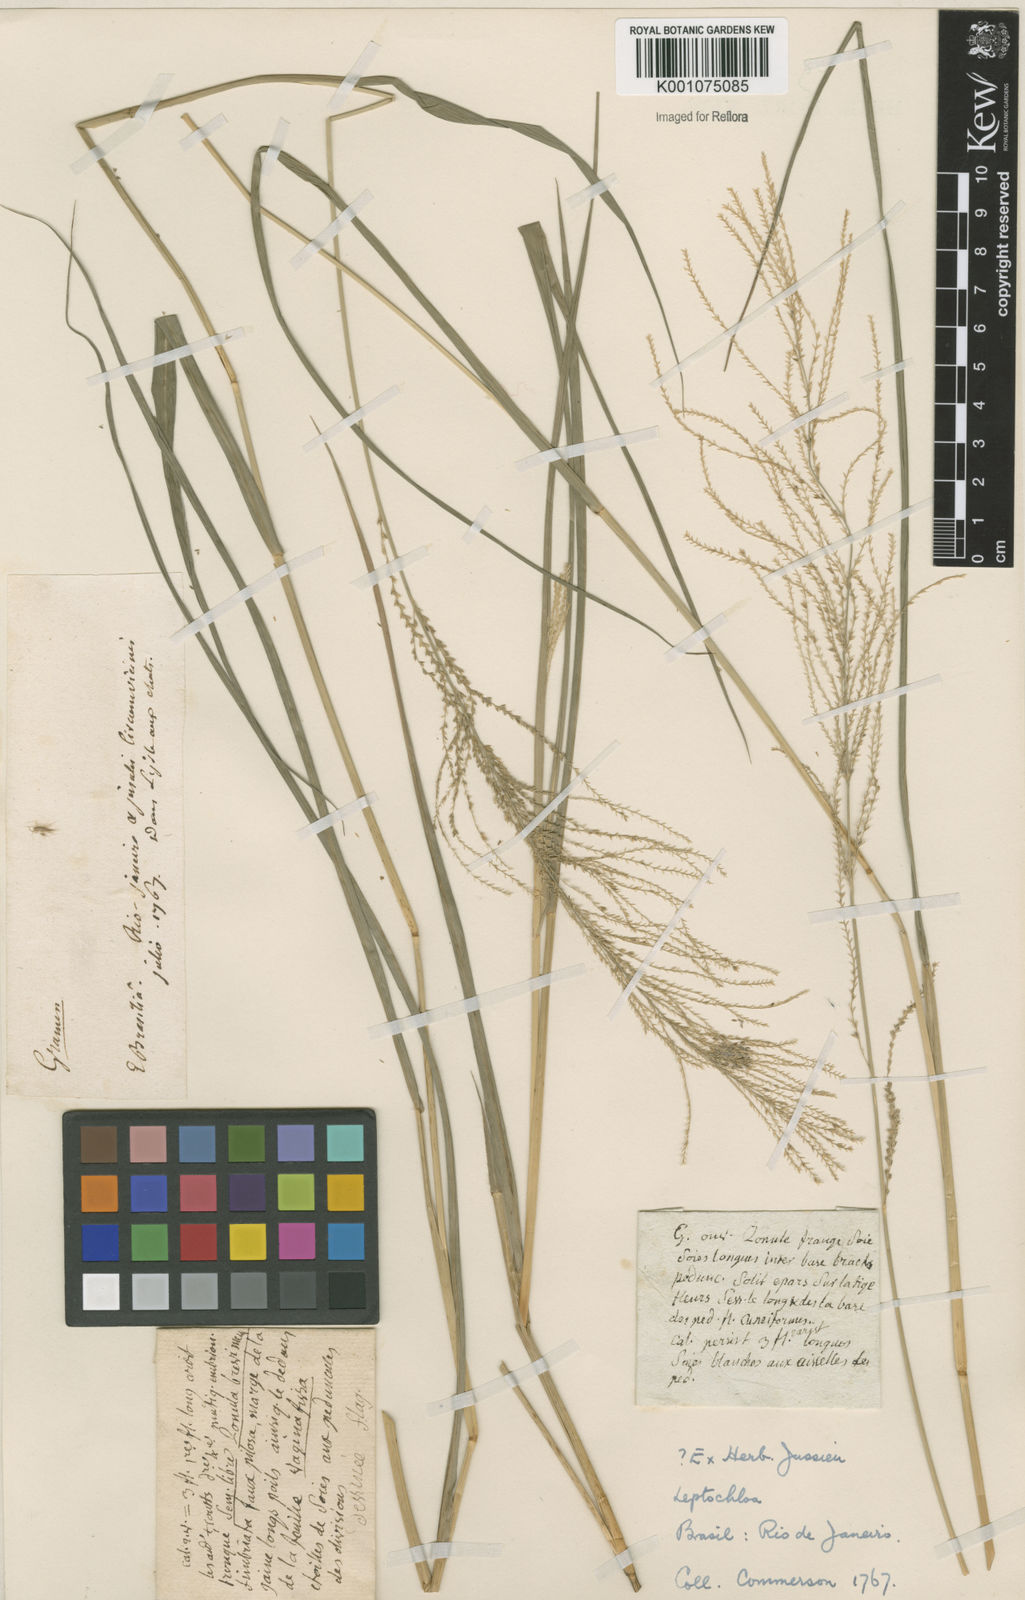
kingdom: Plantae
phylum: Tracheophyta
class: Liliopsida
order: Poales
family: Poaceae
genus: Leptochloa
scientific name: Leptochloa virgata
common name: Tropical sprangletop
